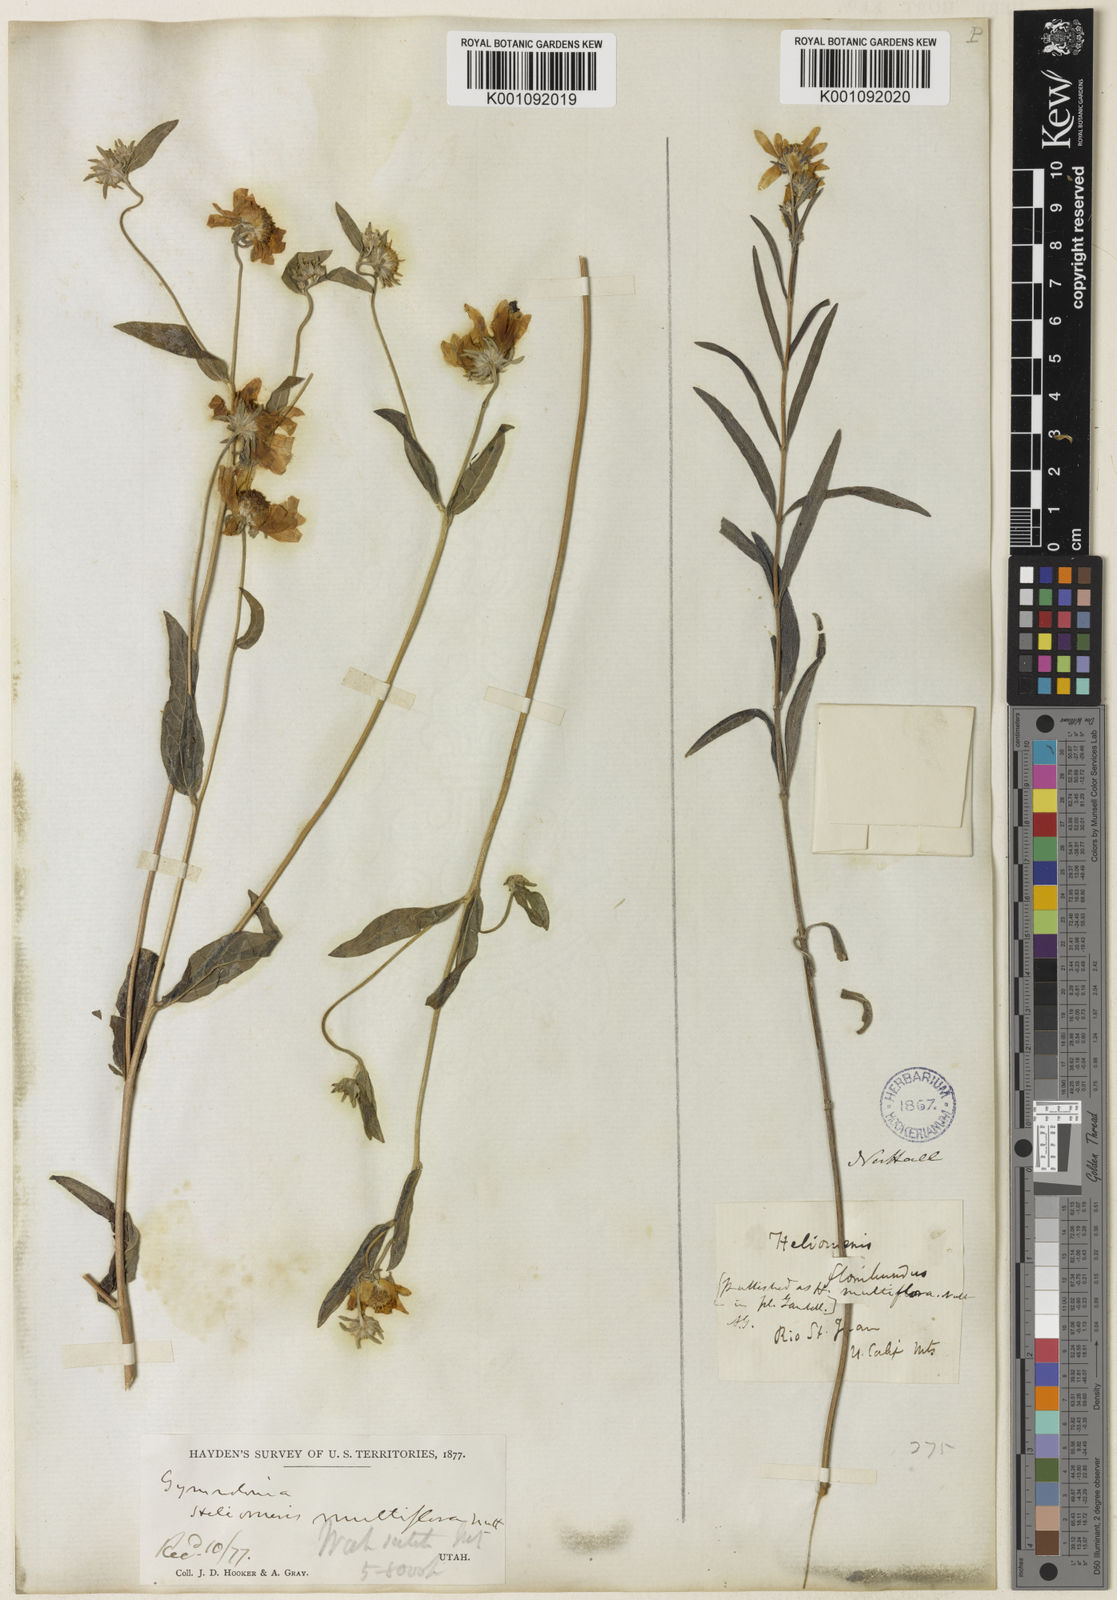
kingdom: Plantae
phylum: Tracheophyta
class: Magnoliopsida
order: Asterales
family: Asteraceae
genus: Heliomeris
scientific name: Heliomeris multiflora
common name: Showy goldeneye
